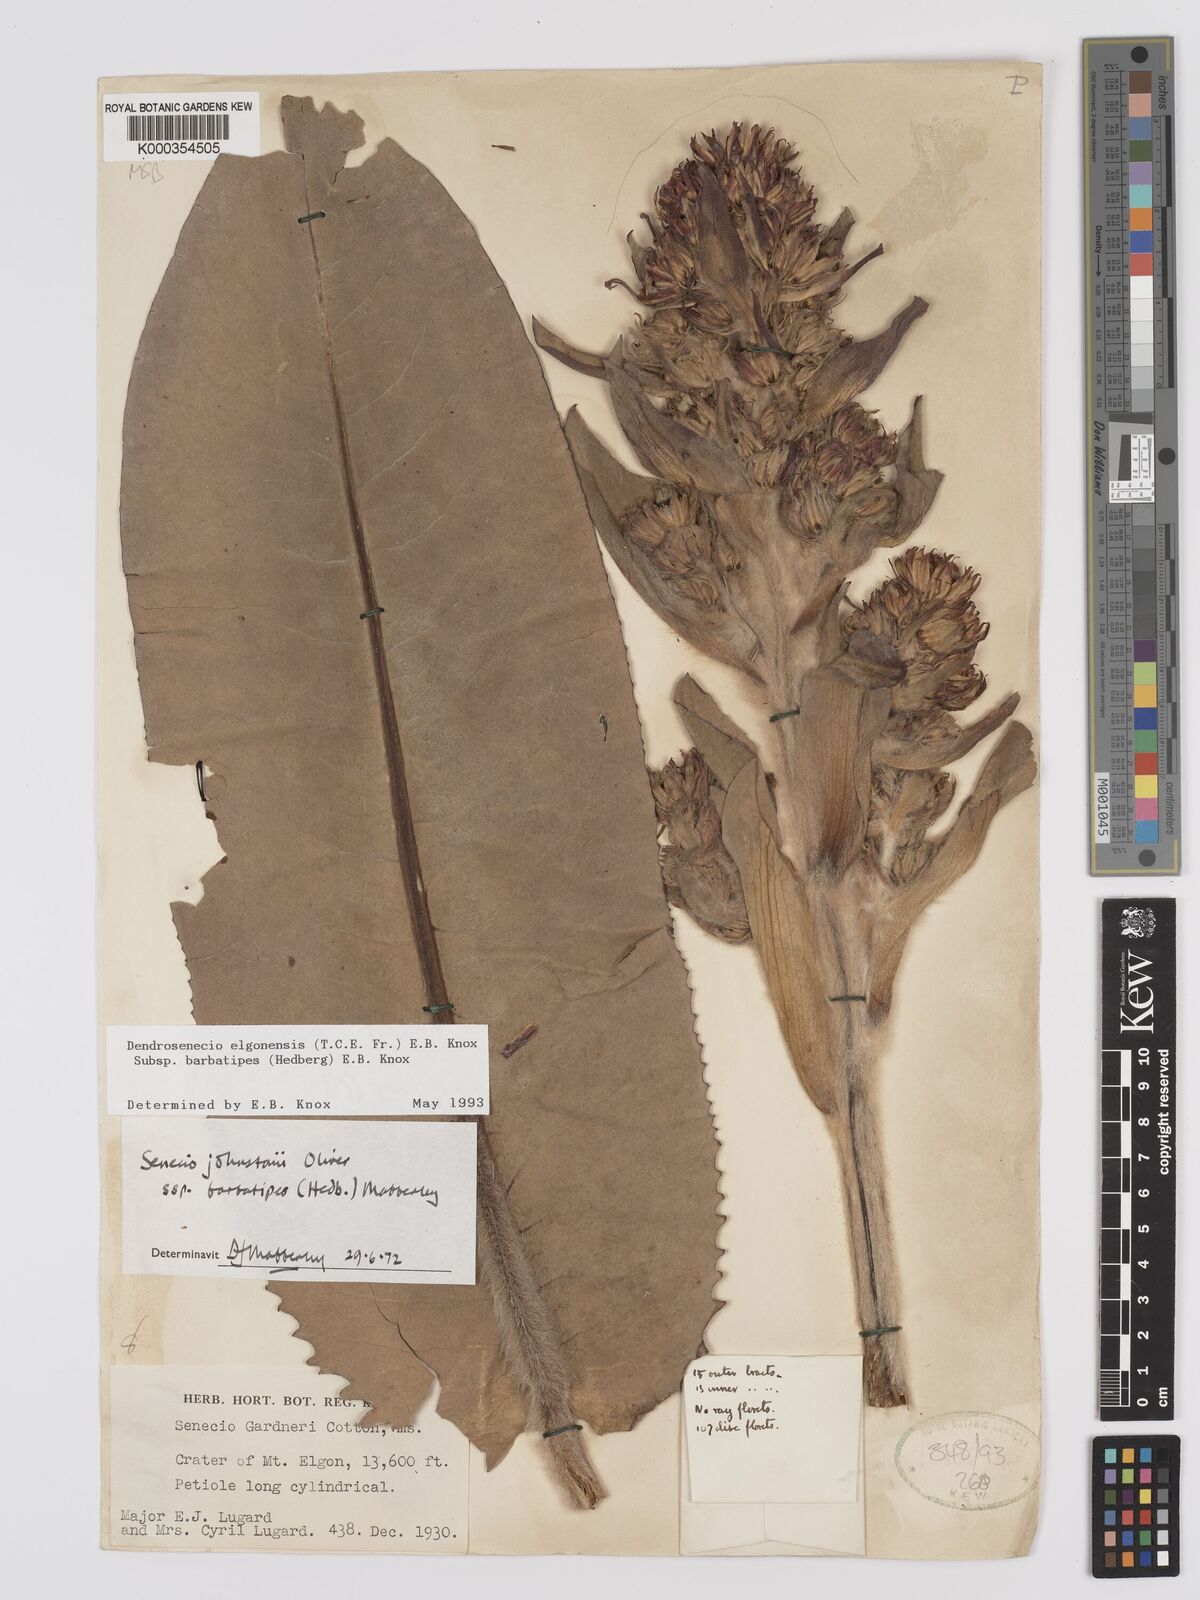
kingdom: Plantae
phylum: Tracheophyta
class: Magnoliopsida
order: Asterales
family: Asteraceae
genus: Dendrosenecio
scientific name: Dendrosenecio elgonensis
